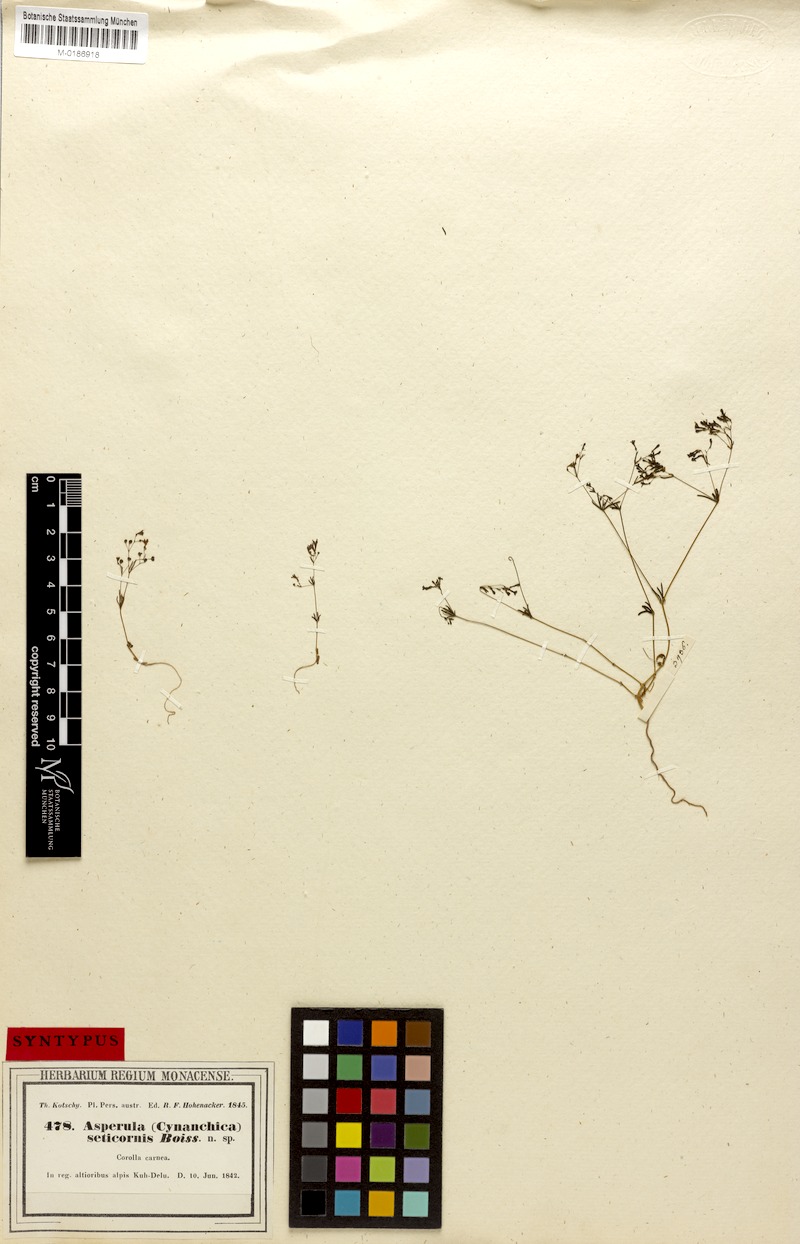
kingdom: Plantae
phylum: Tracheophyta
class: Magnoliopsida
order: Gentianales
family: Rubiaceae
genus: Asperula
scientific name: Asperula seticornis
